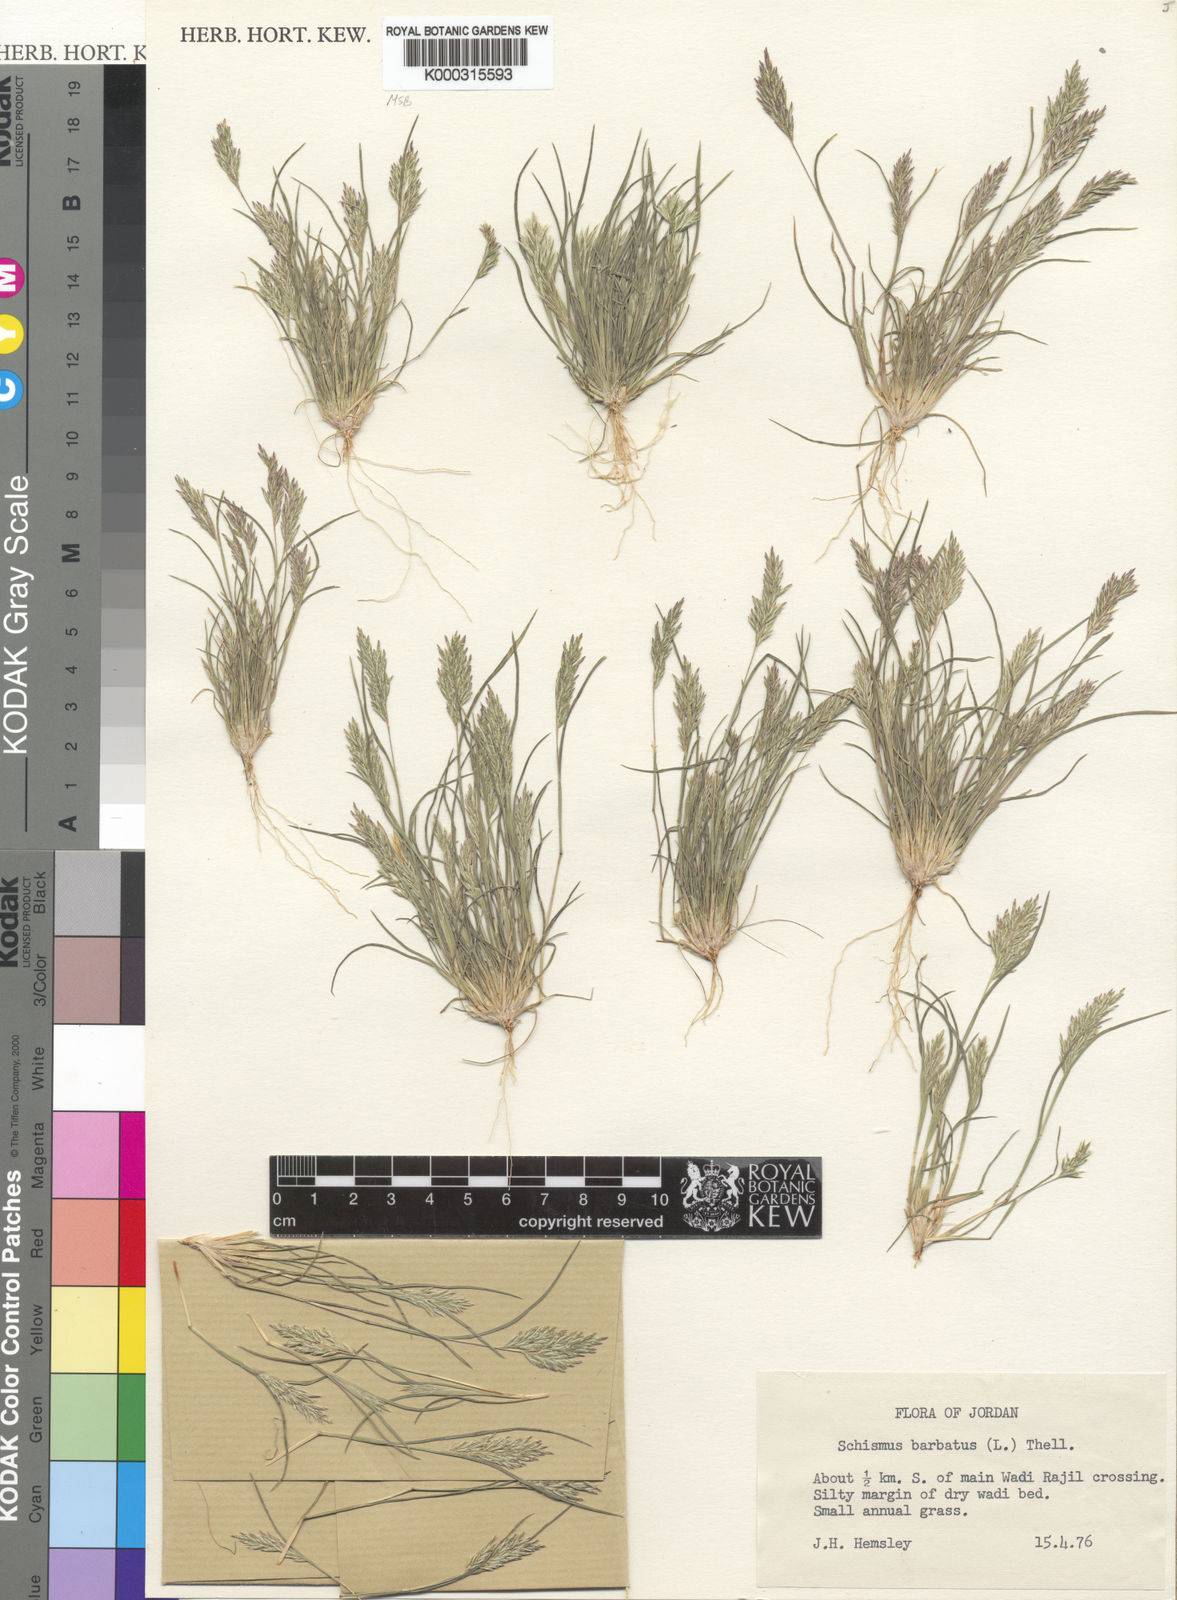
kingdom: Plantae
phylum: Tracheophyta
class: Liliopsida
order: Poales
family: Poaceae
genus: Schismus
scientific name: Schismus barbatus
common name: Kelch-grass
